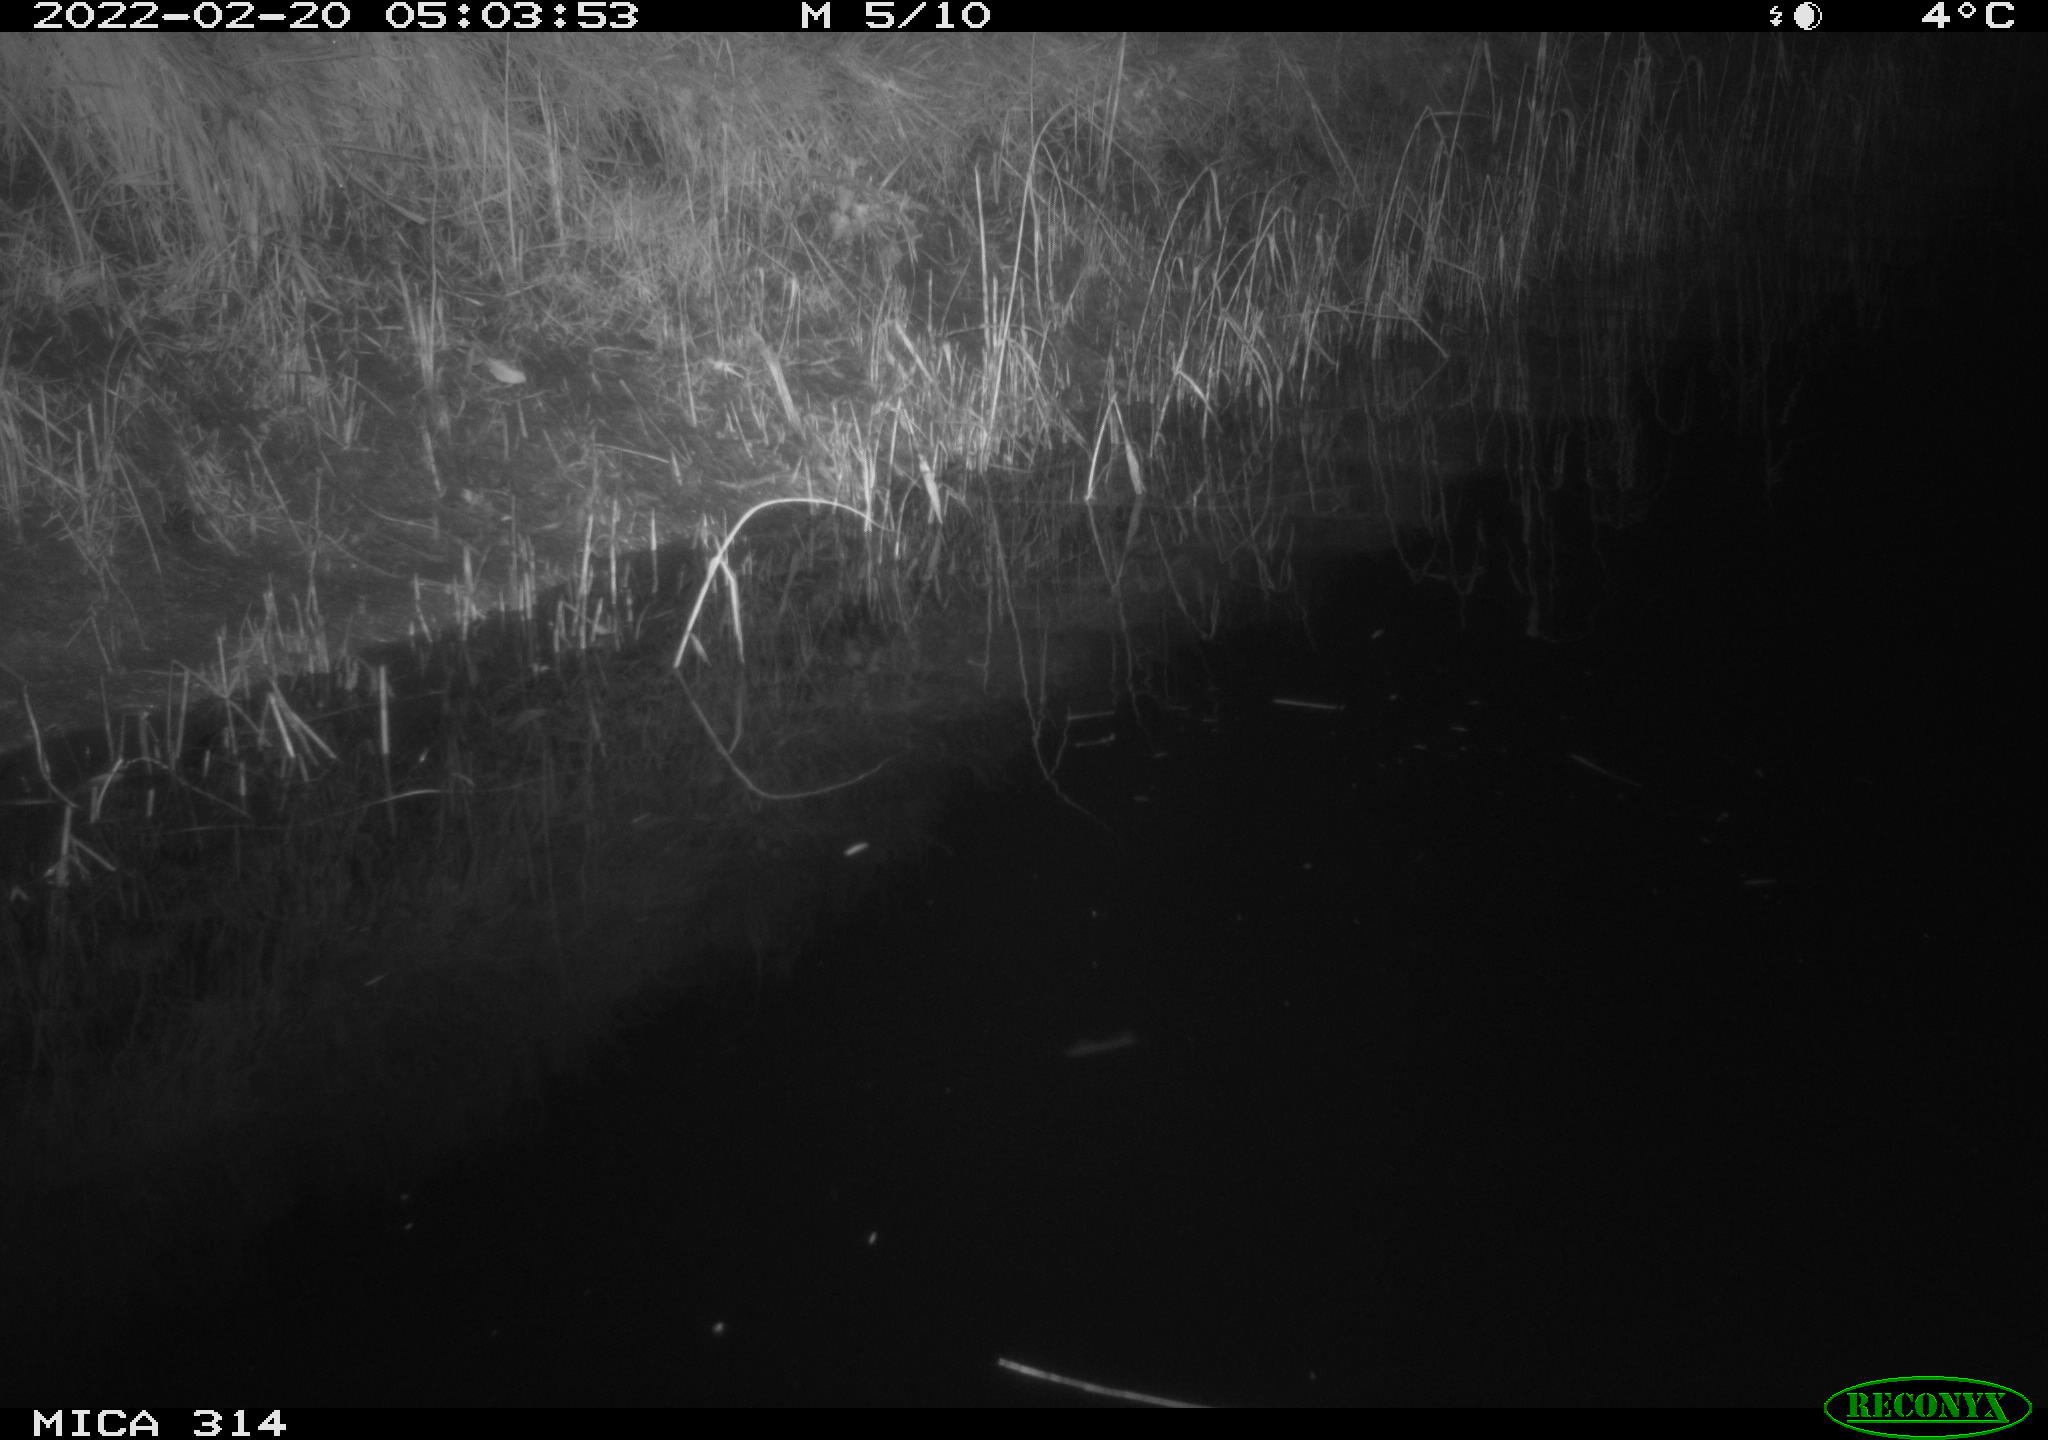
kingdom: Animalia
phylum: Chordata
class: Mammalia
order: Rodentia
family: Muridae
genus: Rattus
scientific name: Rattus norvegicus
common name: Brown rat
